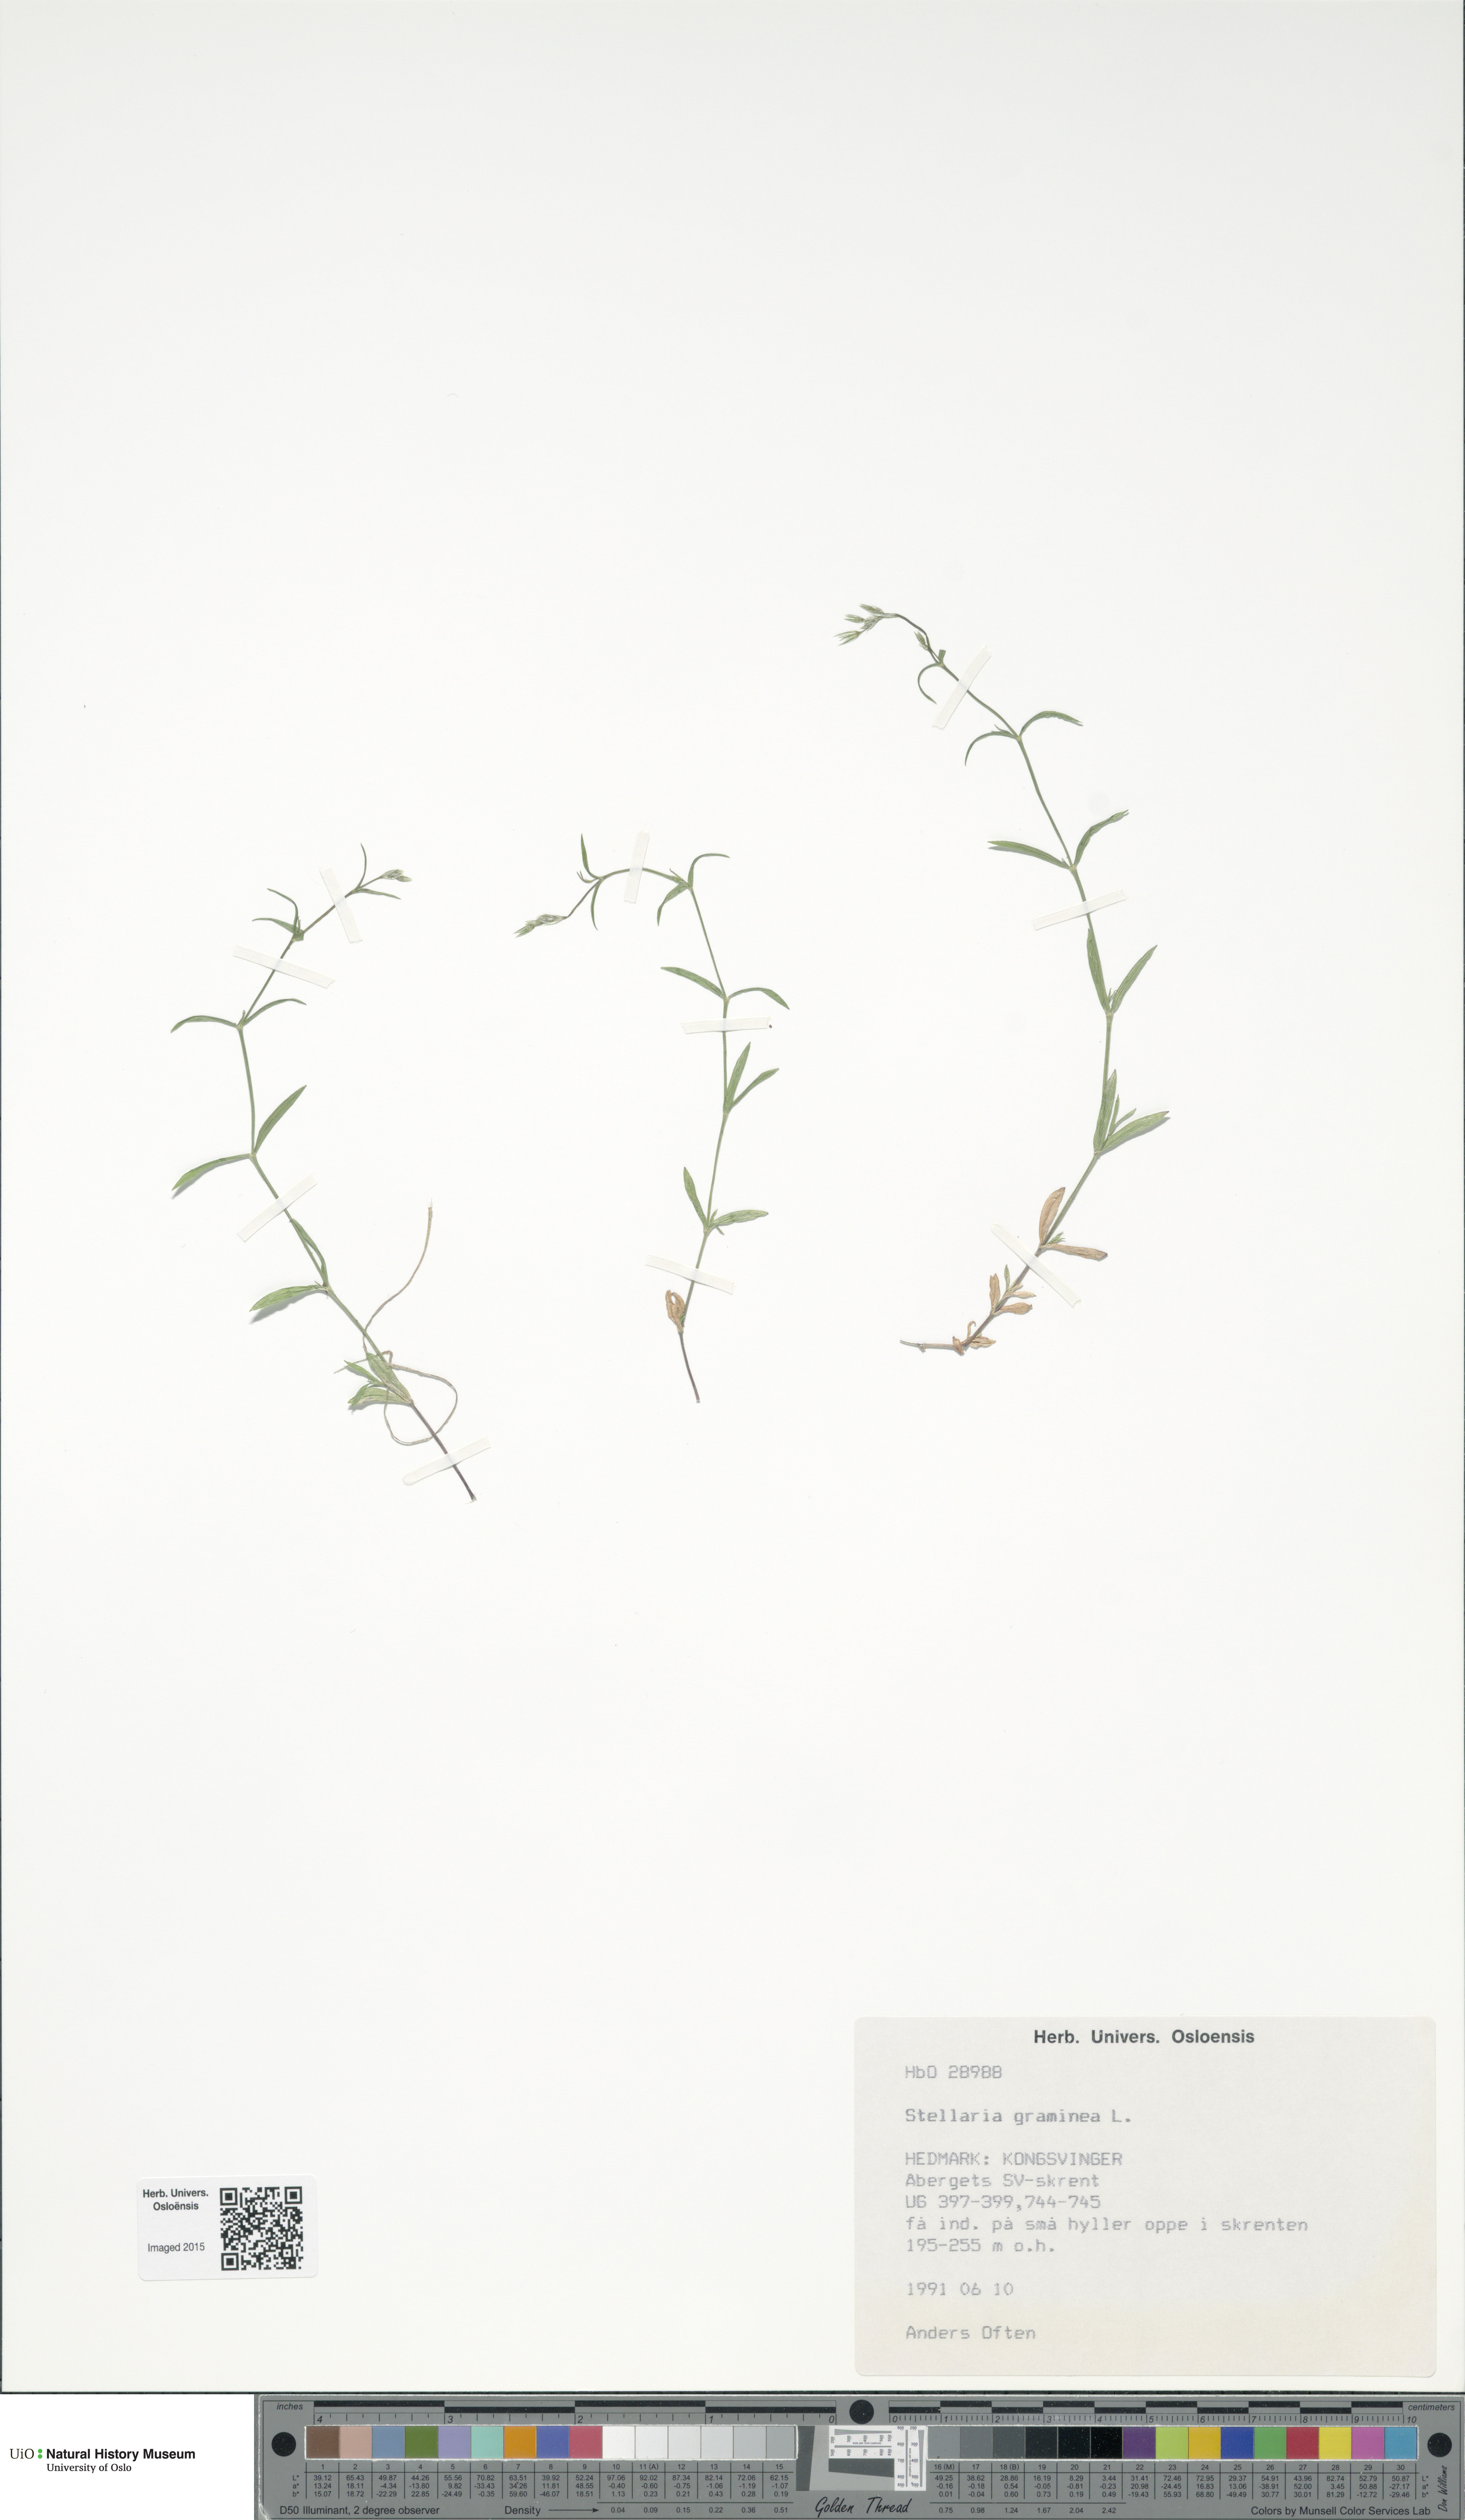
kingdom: Plantae
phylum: Tracheophyta
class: Magnoliopsida
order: Caryophyllales
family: Caryophyllaceae
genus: Stellaria
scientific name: Stellaria graminea
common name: Grass-like starwort
